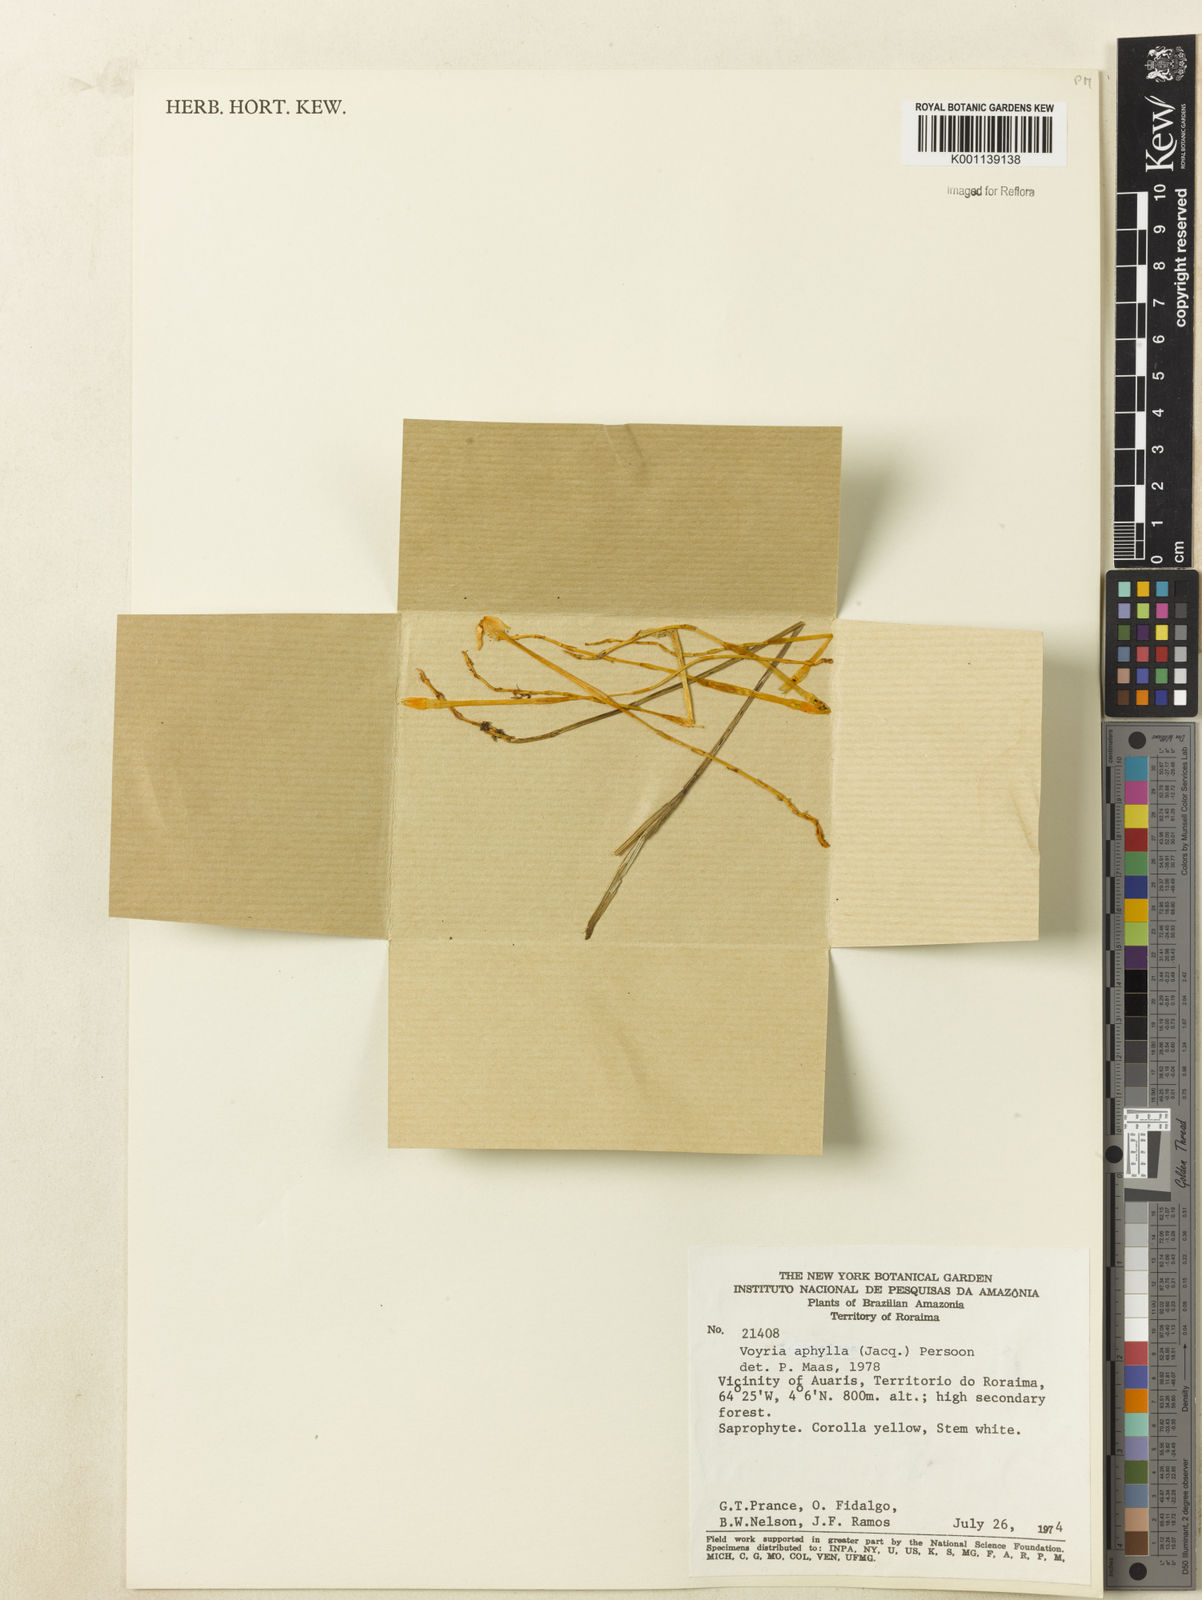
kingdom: Plantae
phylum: Tracheophyta
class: Magnoliopsida
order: Gentianales
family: Gentianaceae
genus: Voyria
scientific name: Voyria aphylla
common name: Leafless ghost plant
